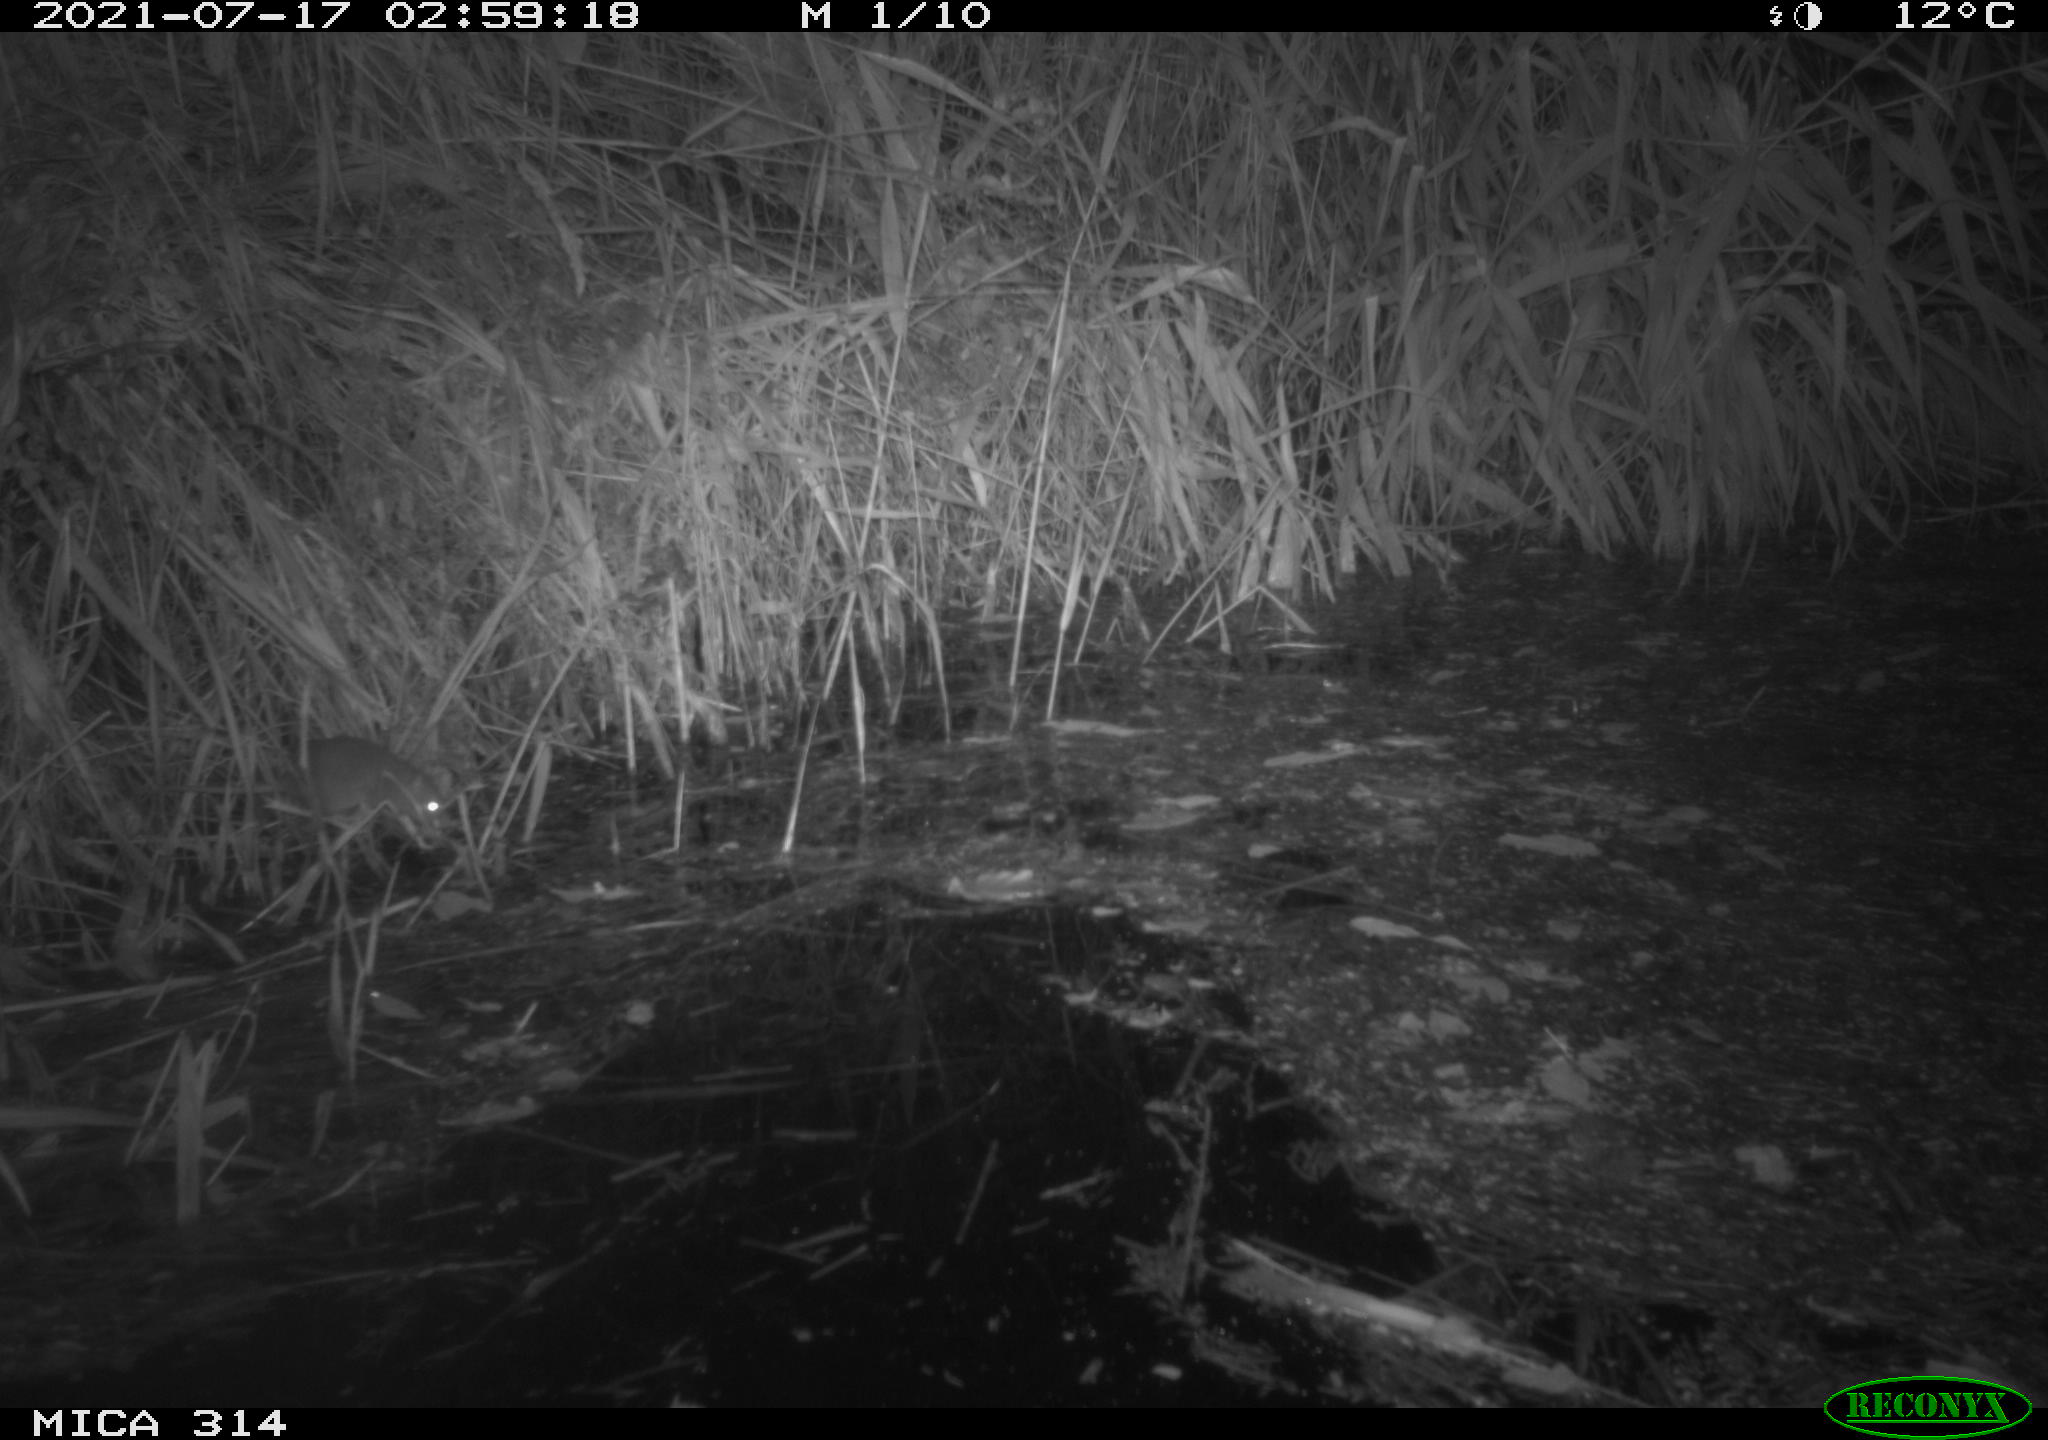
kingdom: Animalia
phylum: Chordata
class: Mammalia
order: Rodentia
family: Muridae
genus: Rattus
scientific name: Rattus norvegicus
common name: Brown rat
